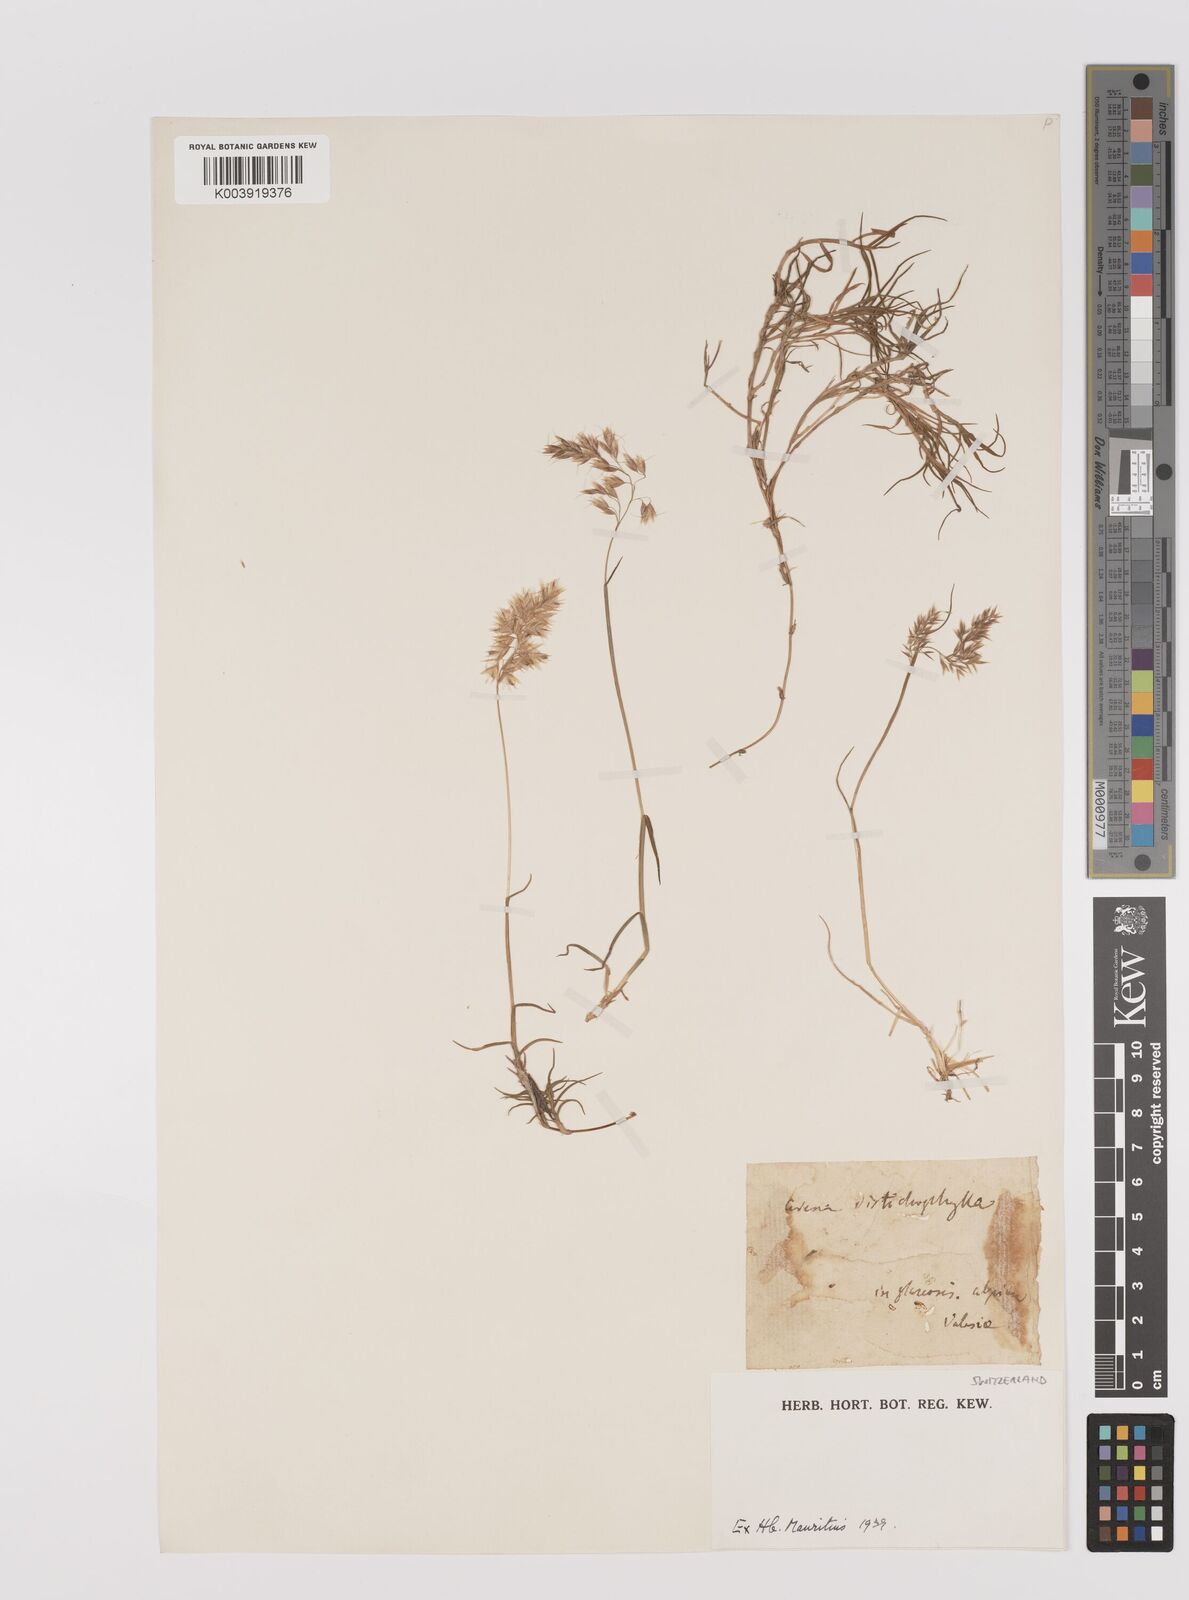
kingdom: Plantae
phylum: Tracheophyta
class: Liliopsida
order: Poales
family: Poaceae
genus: Acrospelion
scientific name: Acrospelion distichophyllum
